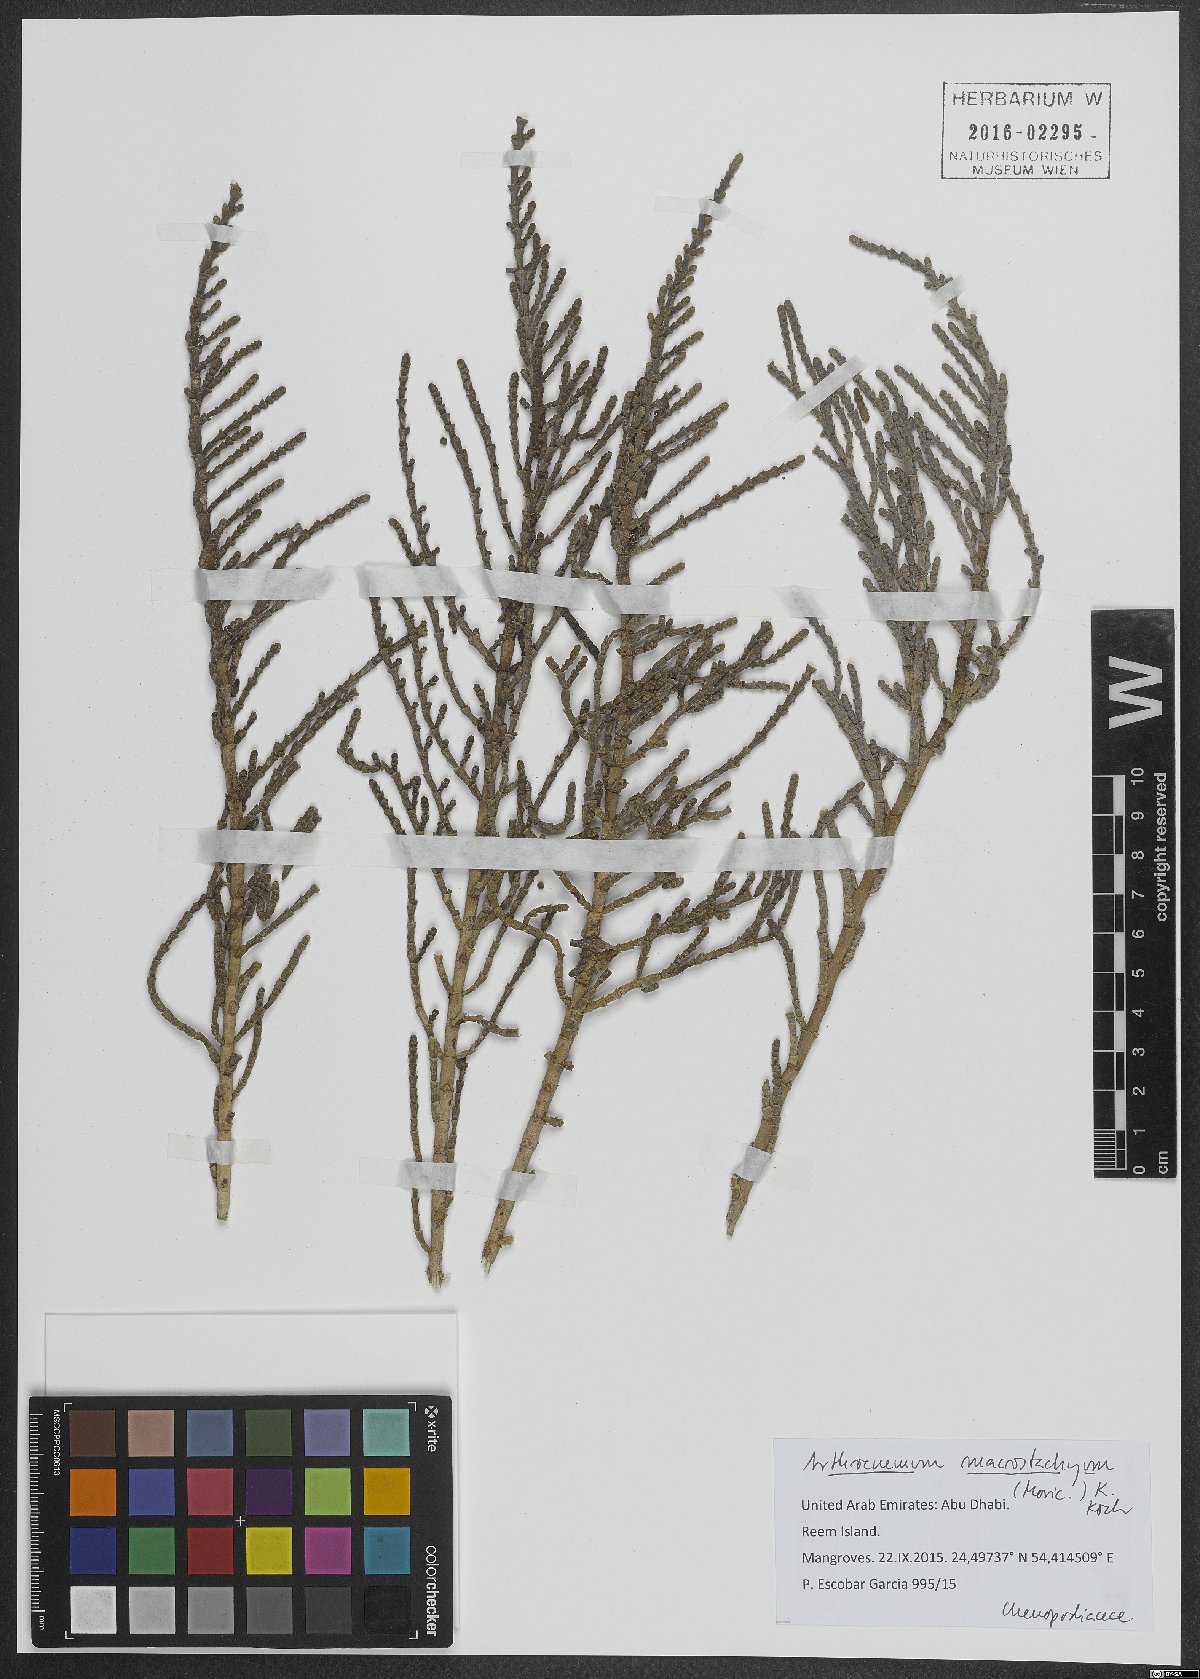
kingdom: Plantae
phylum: Tracheophyta
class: Magnoliopsida
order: Caryophyllales
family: Amaranthaceae
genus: Arthrocaulon
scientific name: Arthrocaulon macrostachyum
